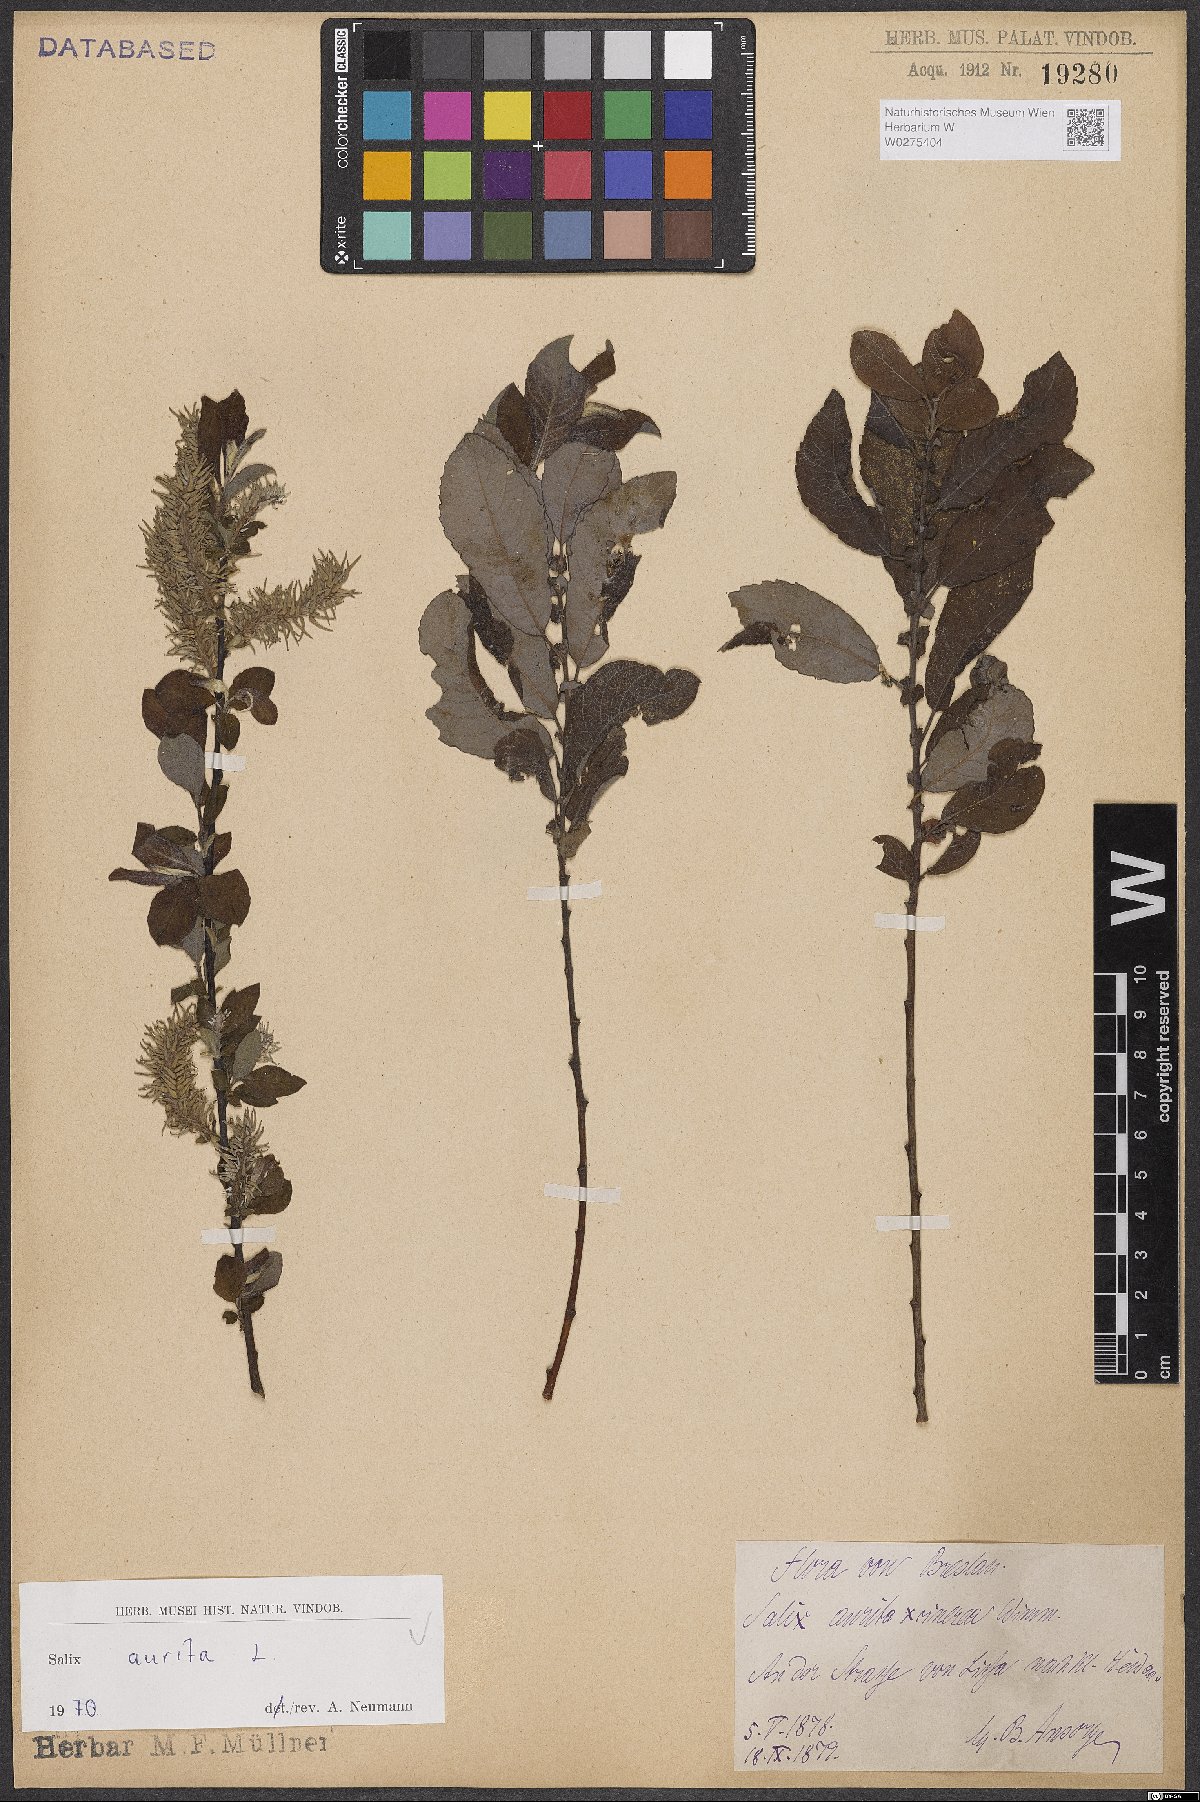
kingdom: Plantae
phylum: Tracheophyta
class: Magnoliopsida
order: Malpighiales
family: Salicaceae
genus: Salix
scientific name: Salix aurita
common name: Eared willow
